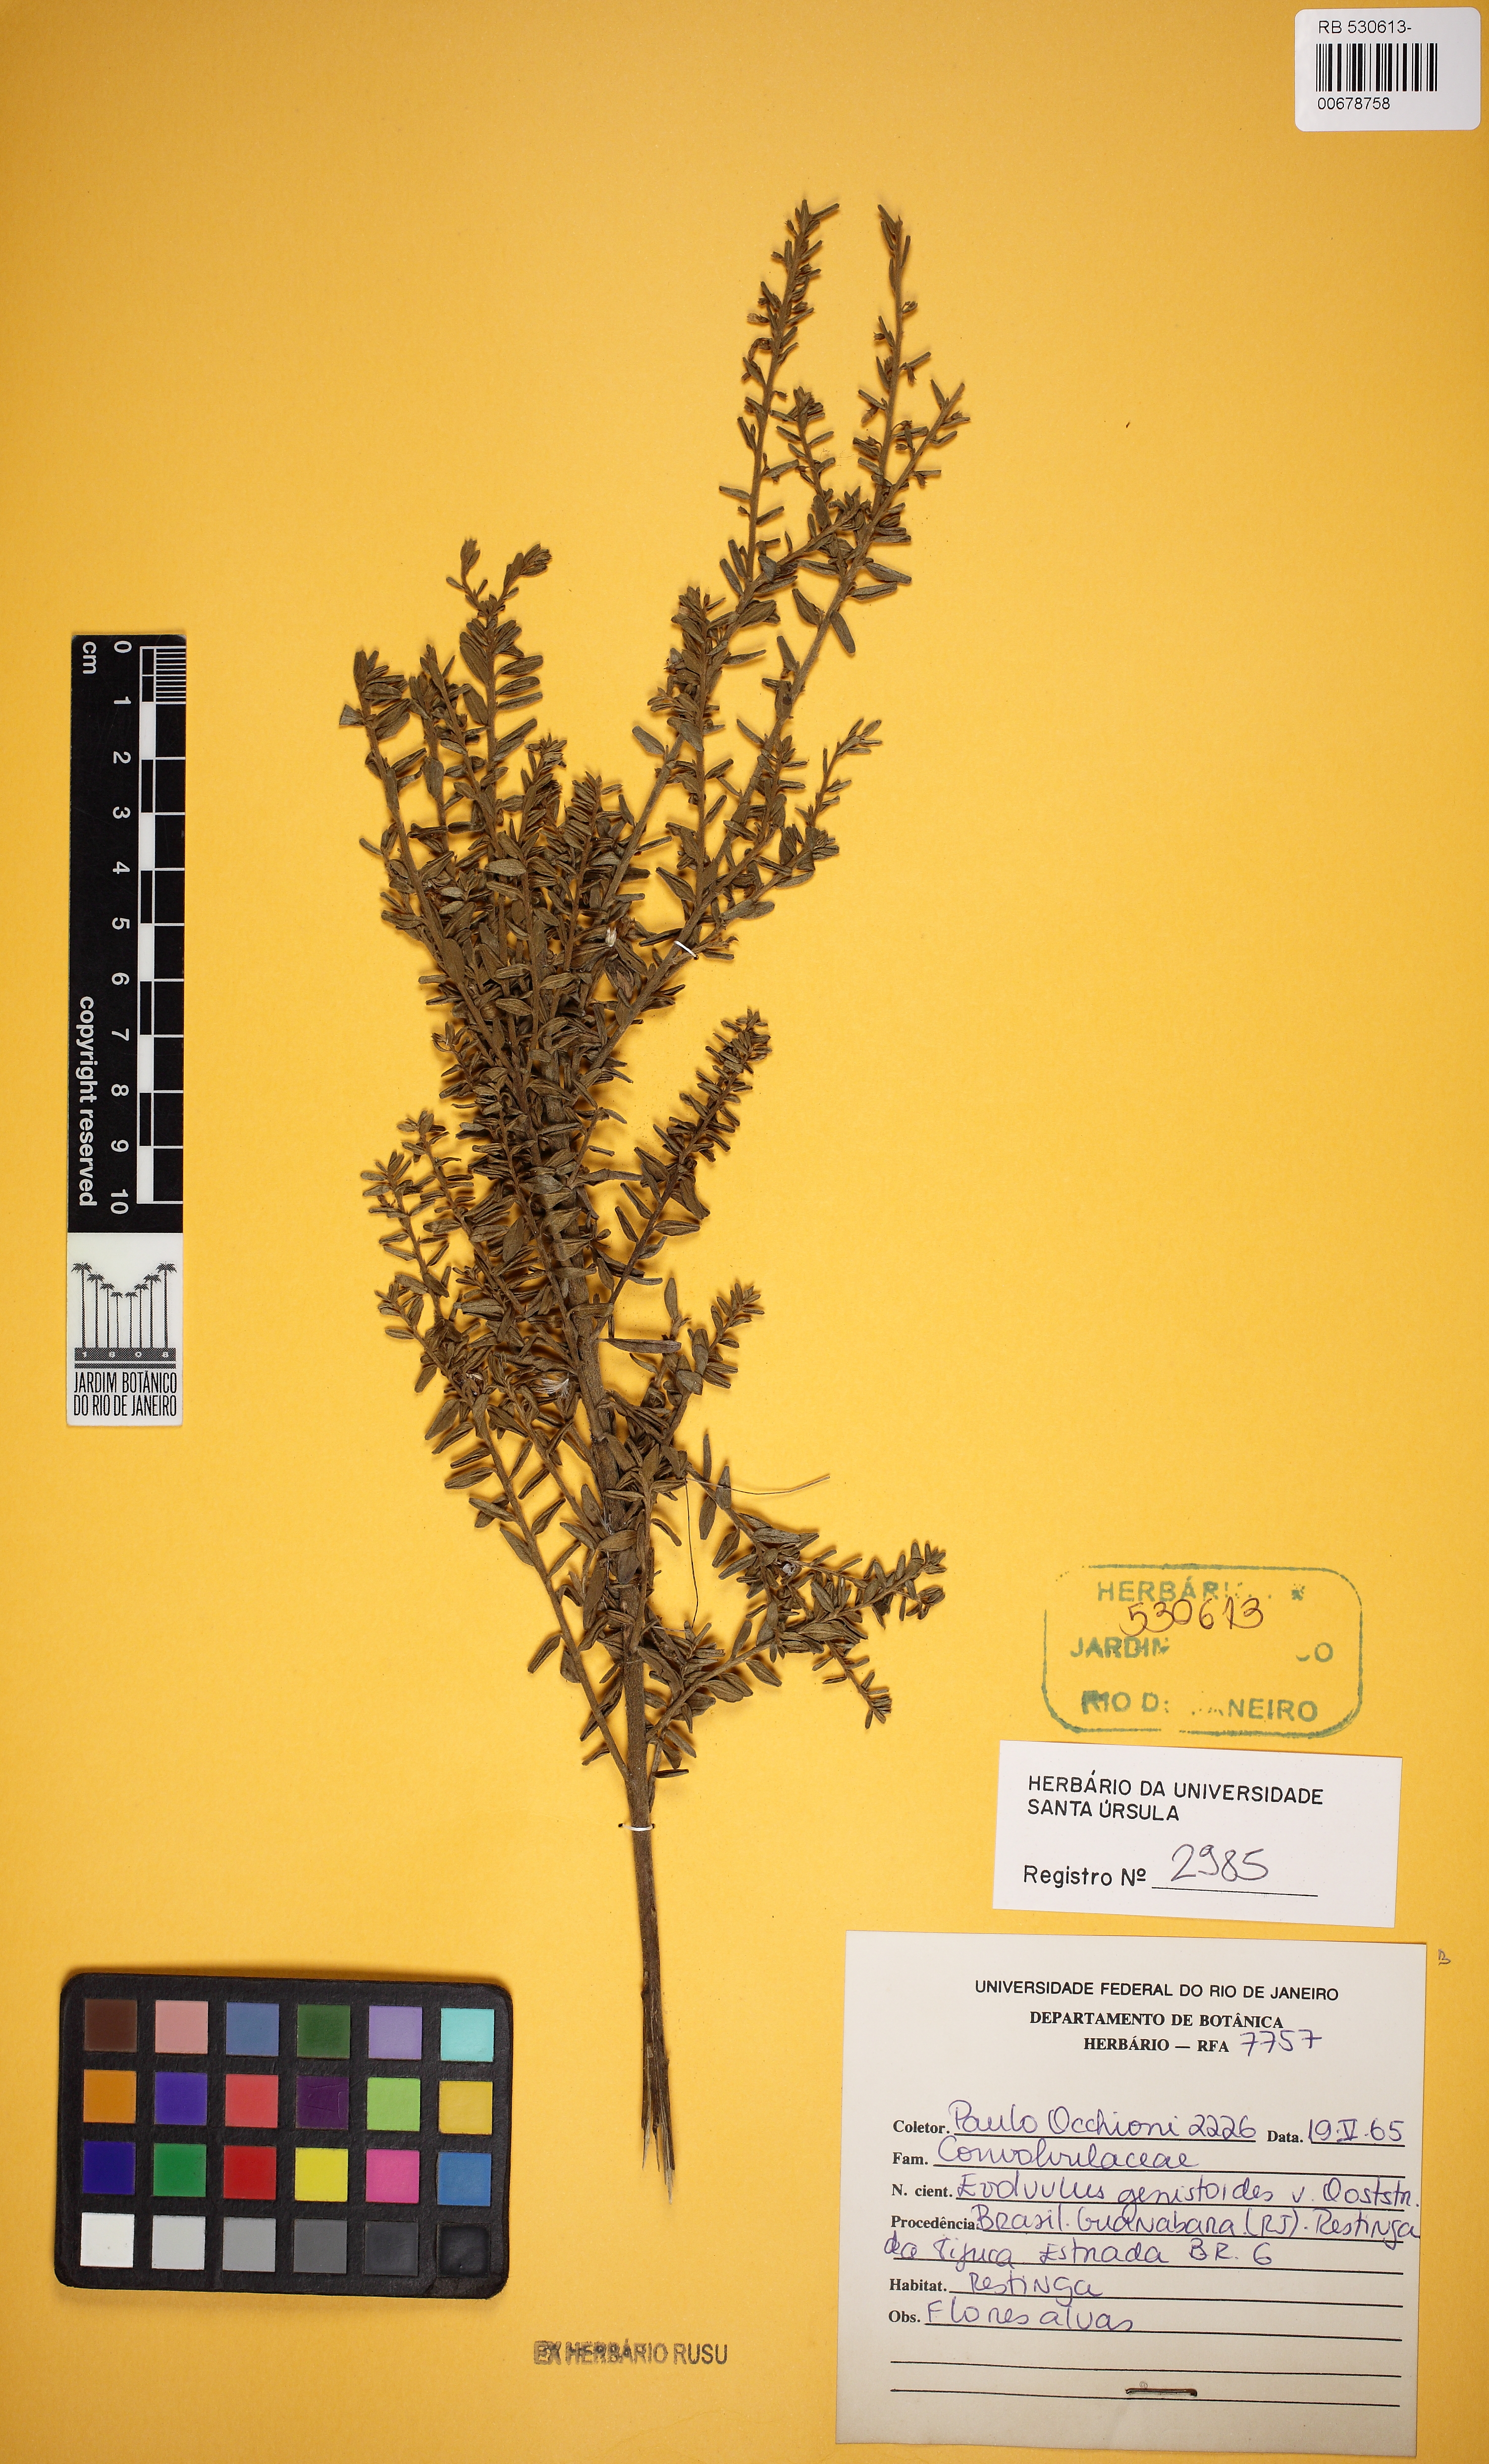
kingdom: Plantae
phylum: Tracheophyta
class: Magnoliopsida
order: Solanales
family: Convolvulaceae
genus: Evolvulus
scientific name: Evolvulus genistoides
